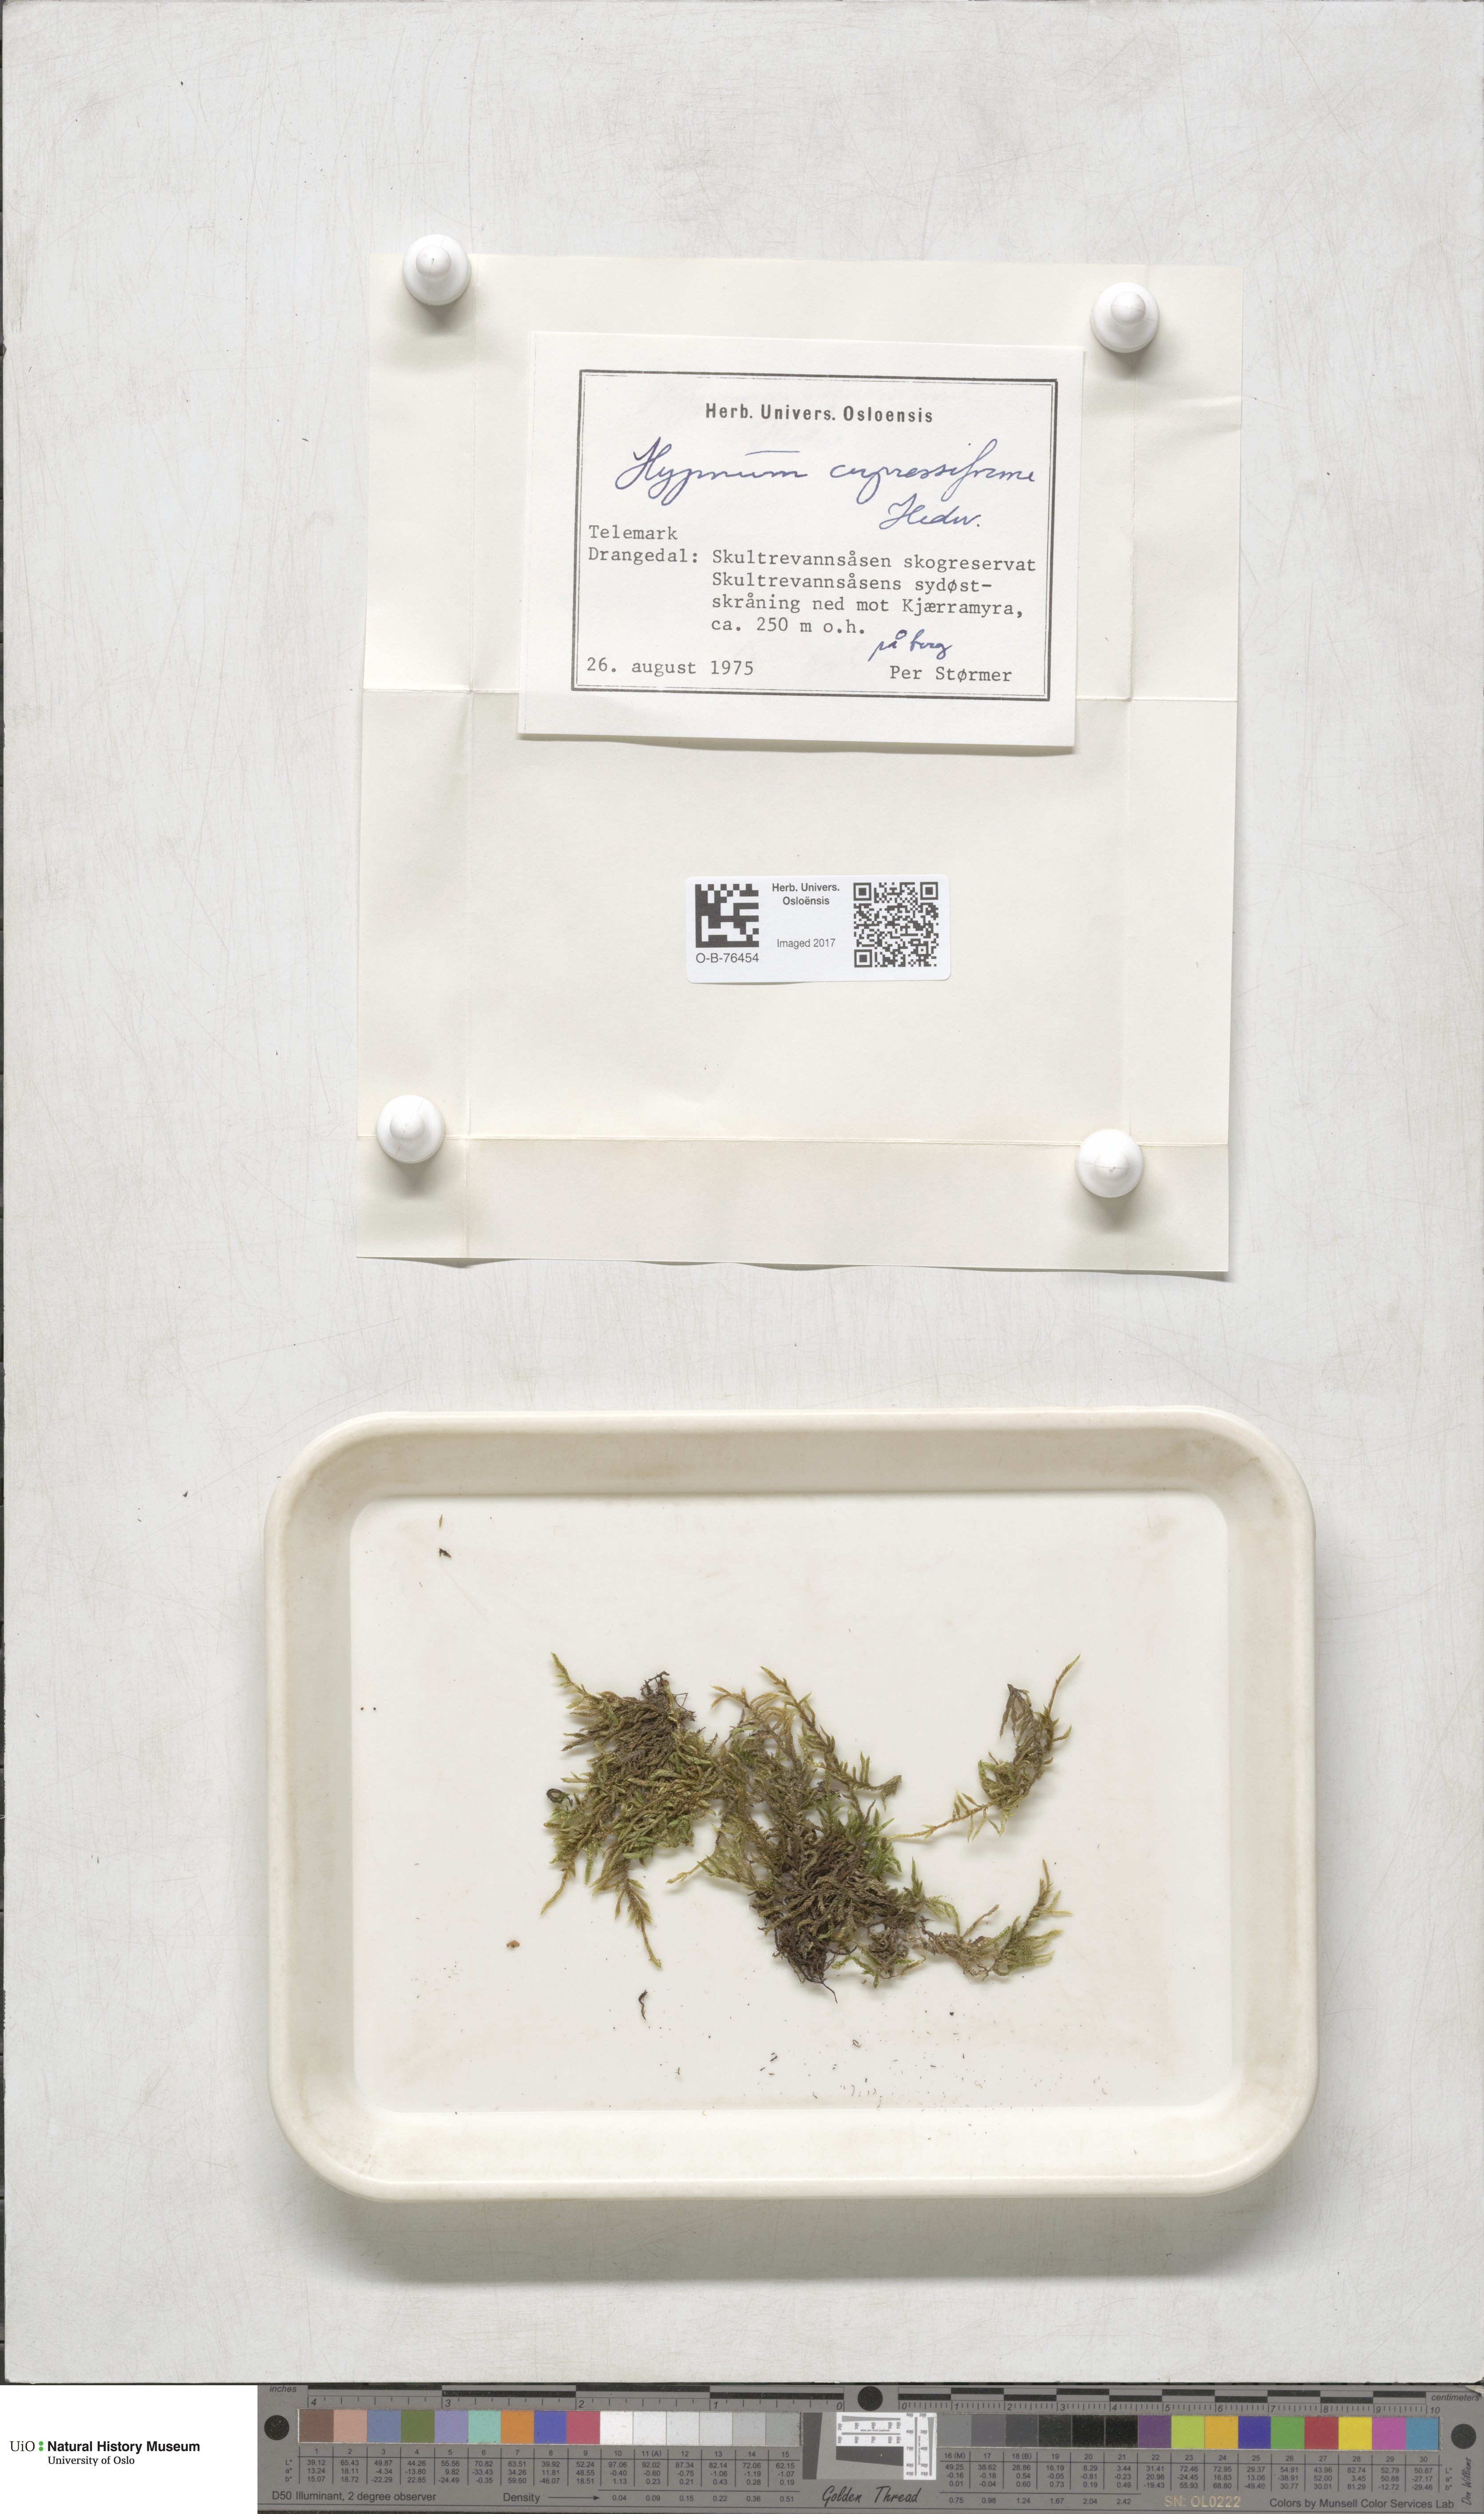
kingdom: Plantae
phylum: Bryophyta
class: Bryopsida
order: Hypnales
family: Hypnaceae
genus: Hypnum
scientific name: Hypnum cupressiforme
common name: Cypress-leaved plait-moss
